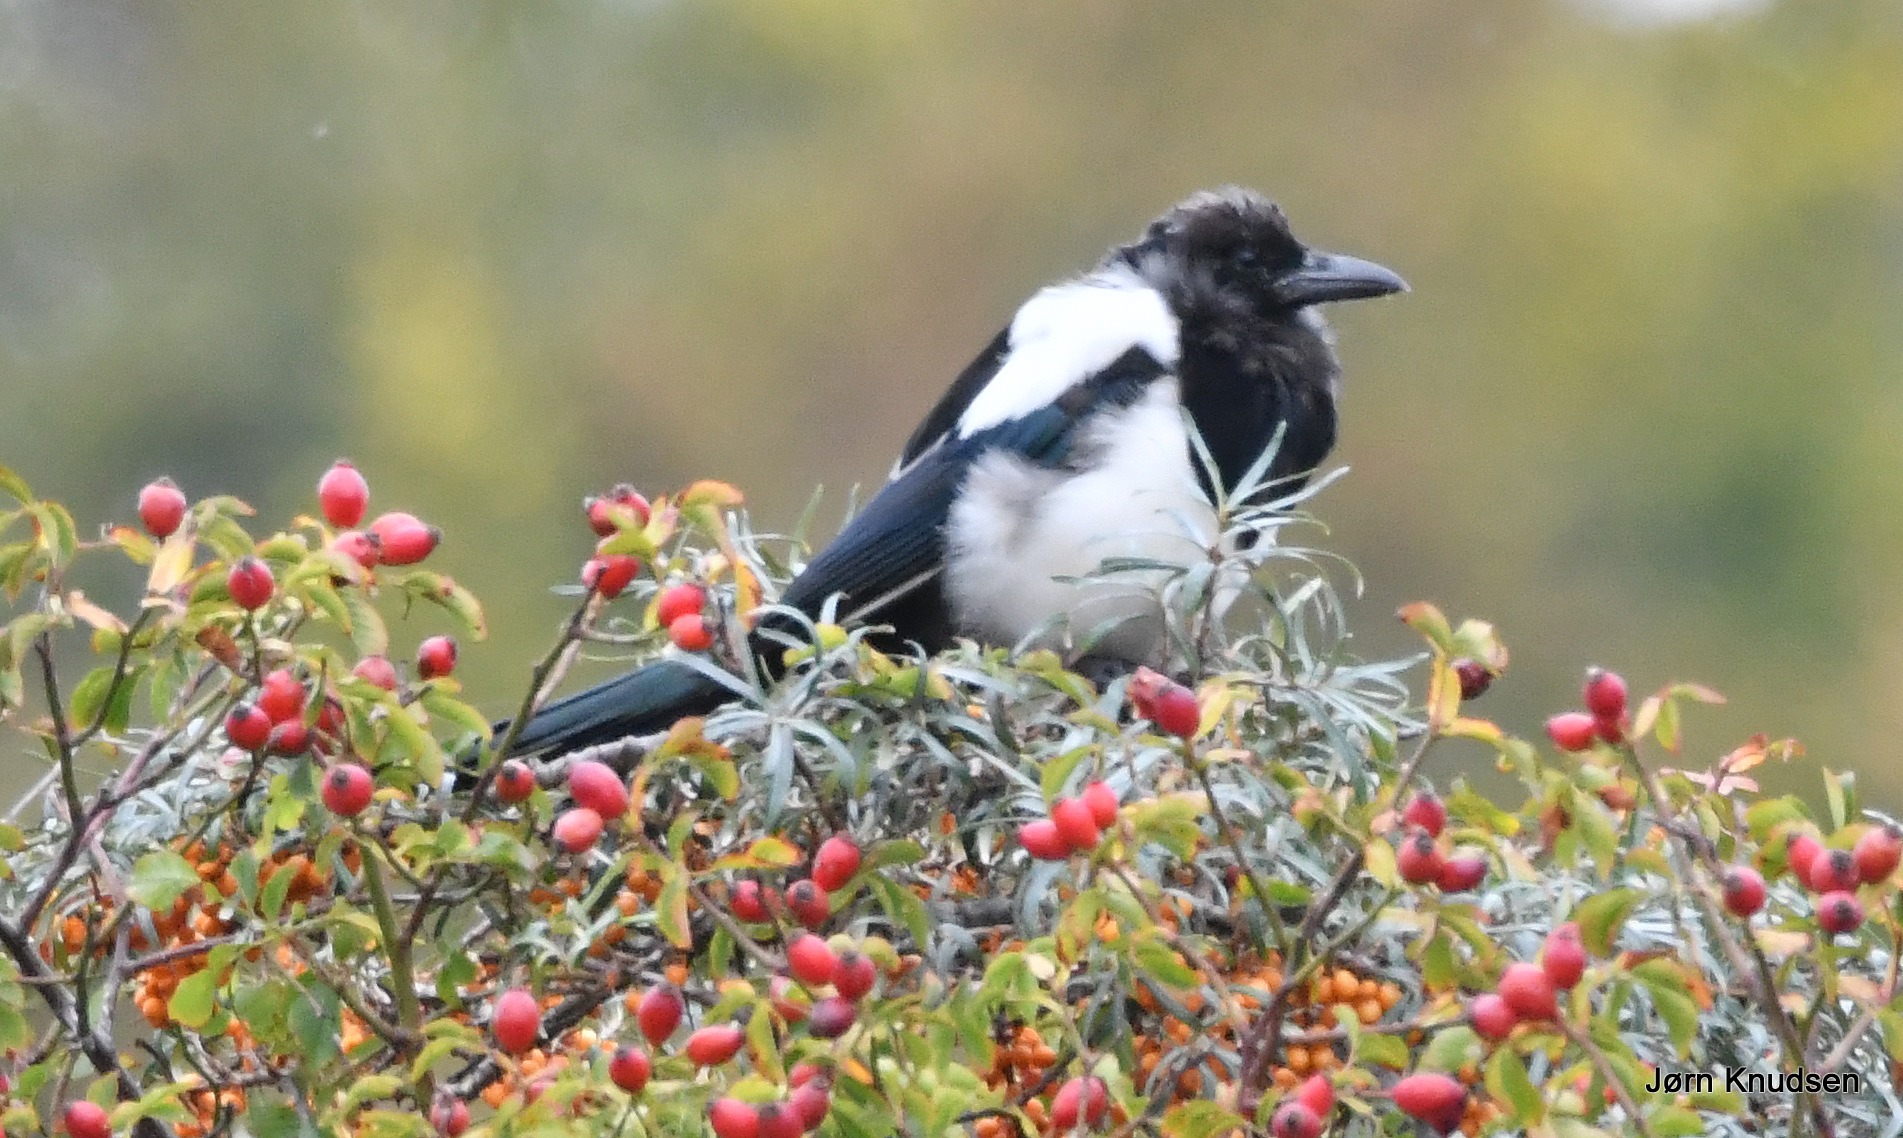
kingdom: Animalia
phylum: Chordata
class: Aves
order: Passeriformes
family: Corvidae
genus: Pica
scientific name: Pica pica
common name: Husskade
